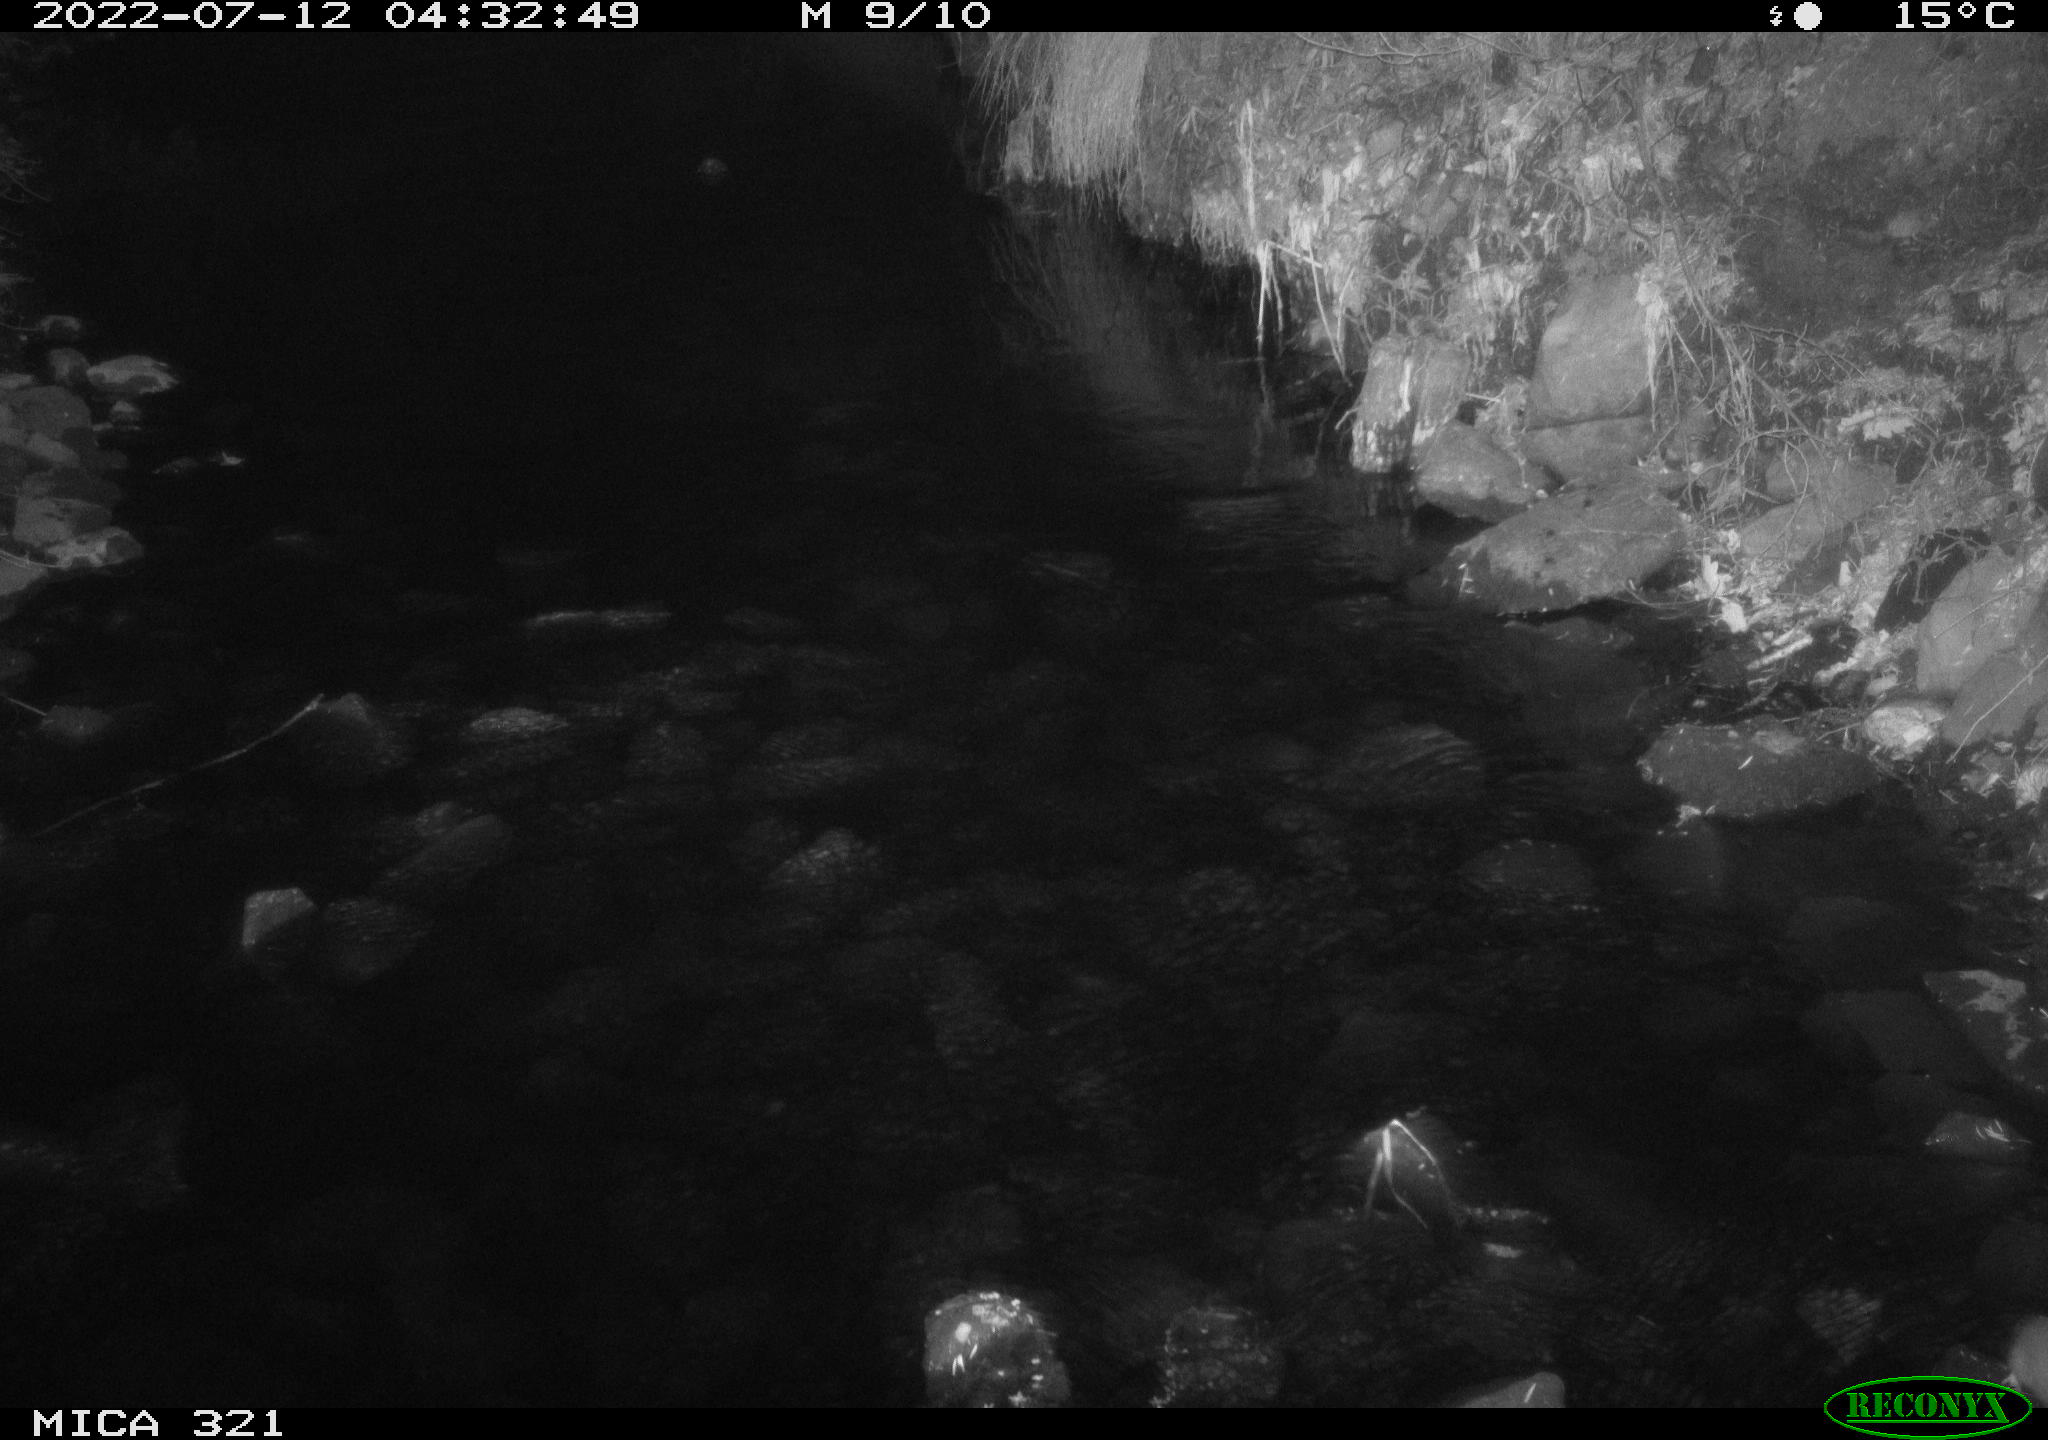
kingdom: Animalia
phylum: Chordata
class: Mammalia
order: Rodentia
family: Muridae
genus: Rattus
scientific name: Rattus norvegicus
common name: Brown rat
